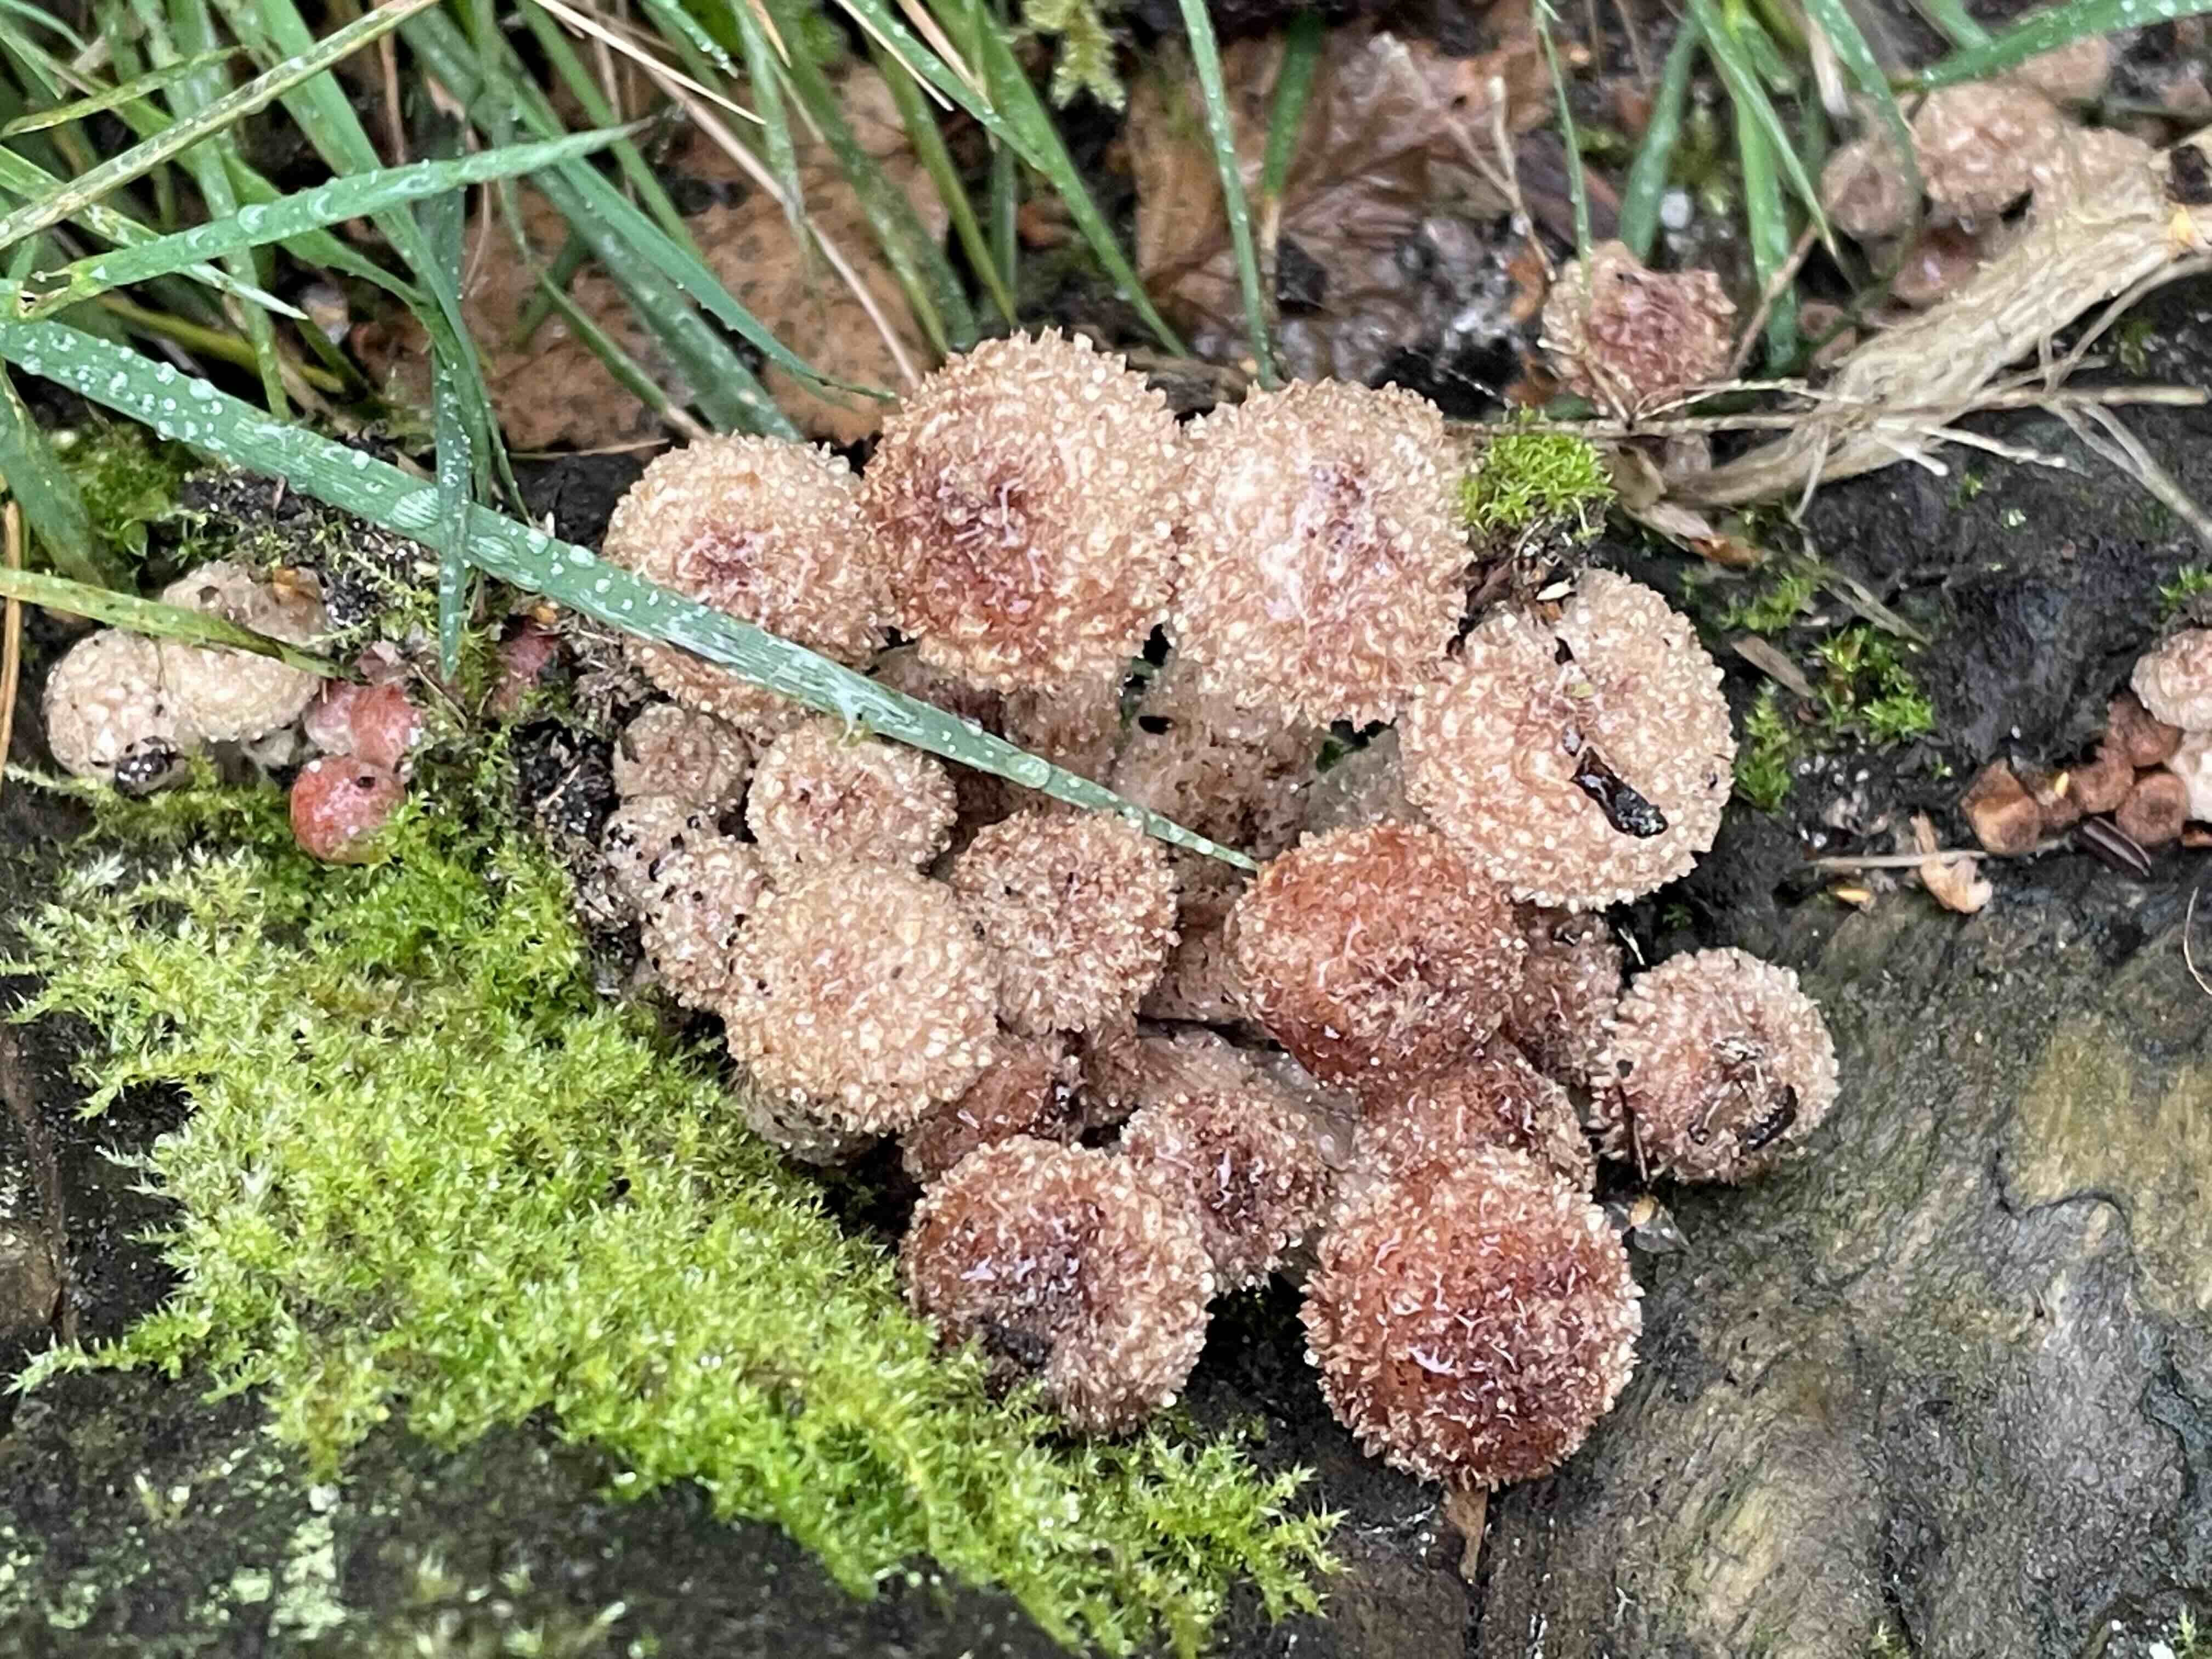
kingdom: Fungi
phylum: Basidiomycota
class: Agaricomycetes
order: Agaricales
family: Physalacriaceae
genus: Armillaria
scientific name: Armillaria ostoyae
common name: mørk honningsvamp
